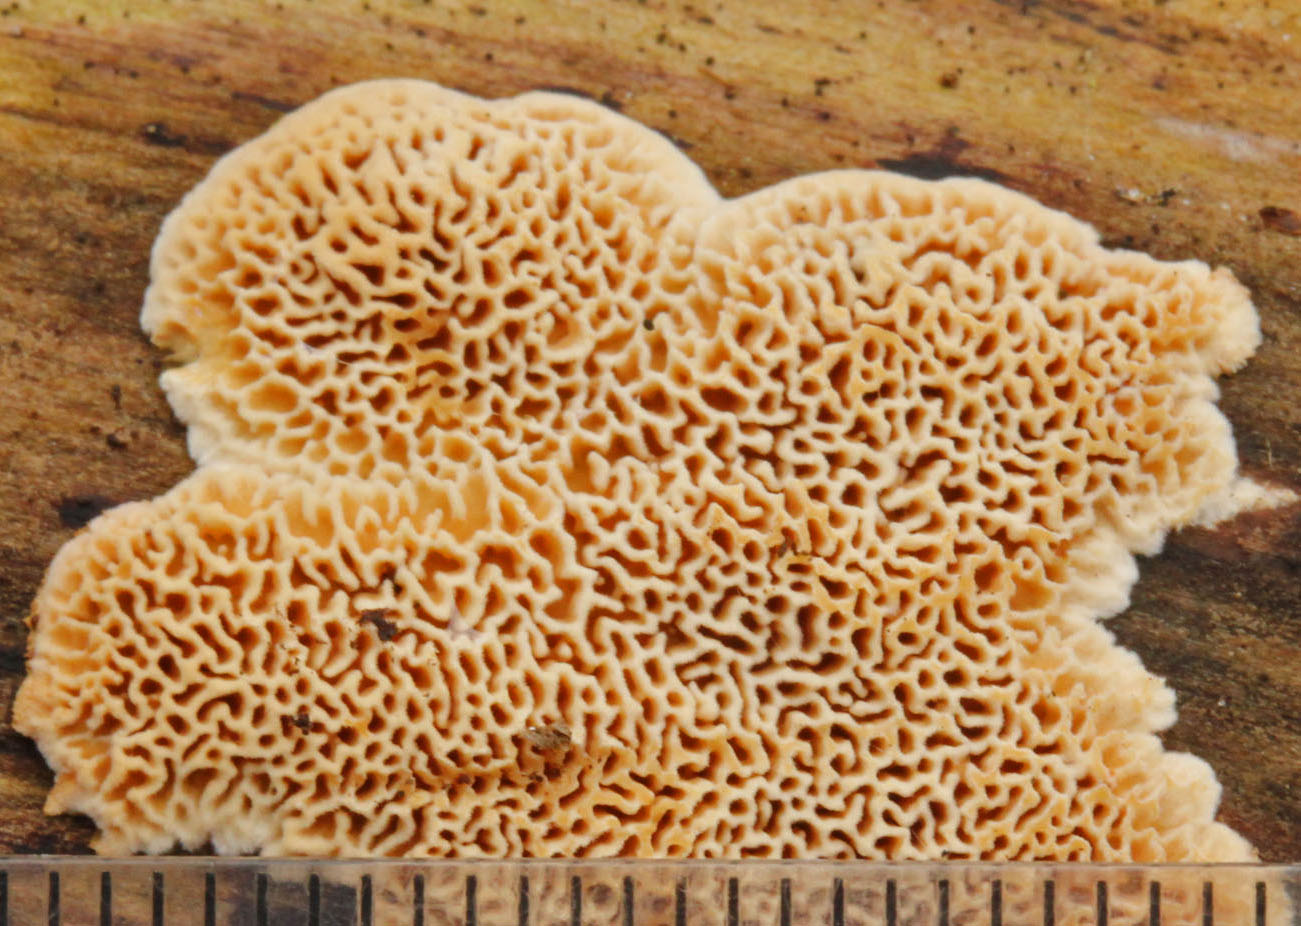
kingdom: Fungi
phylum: Basidiomycota
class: Agaricomycetes
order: Polyporales
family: Fomitopsidaceae
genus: Fomitopsis
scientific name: Fomitopsis
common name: pile-skiveporesvamp
